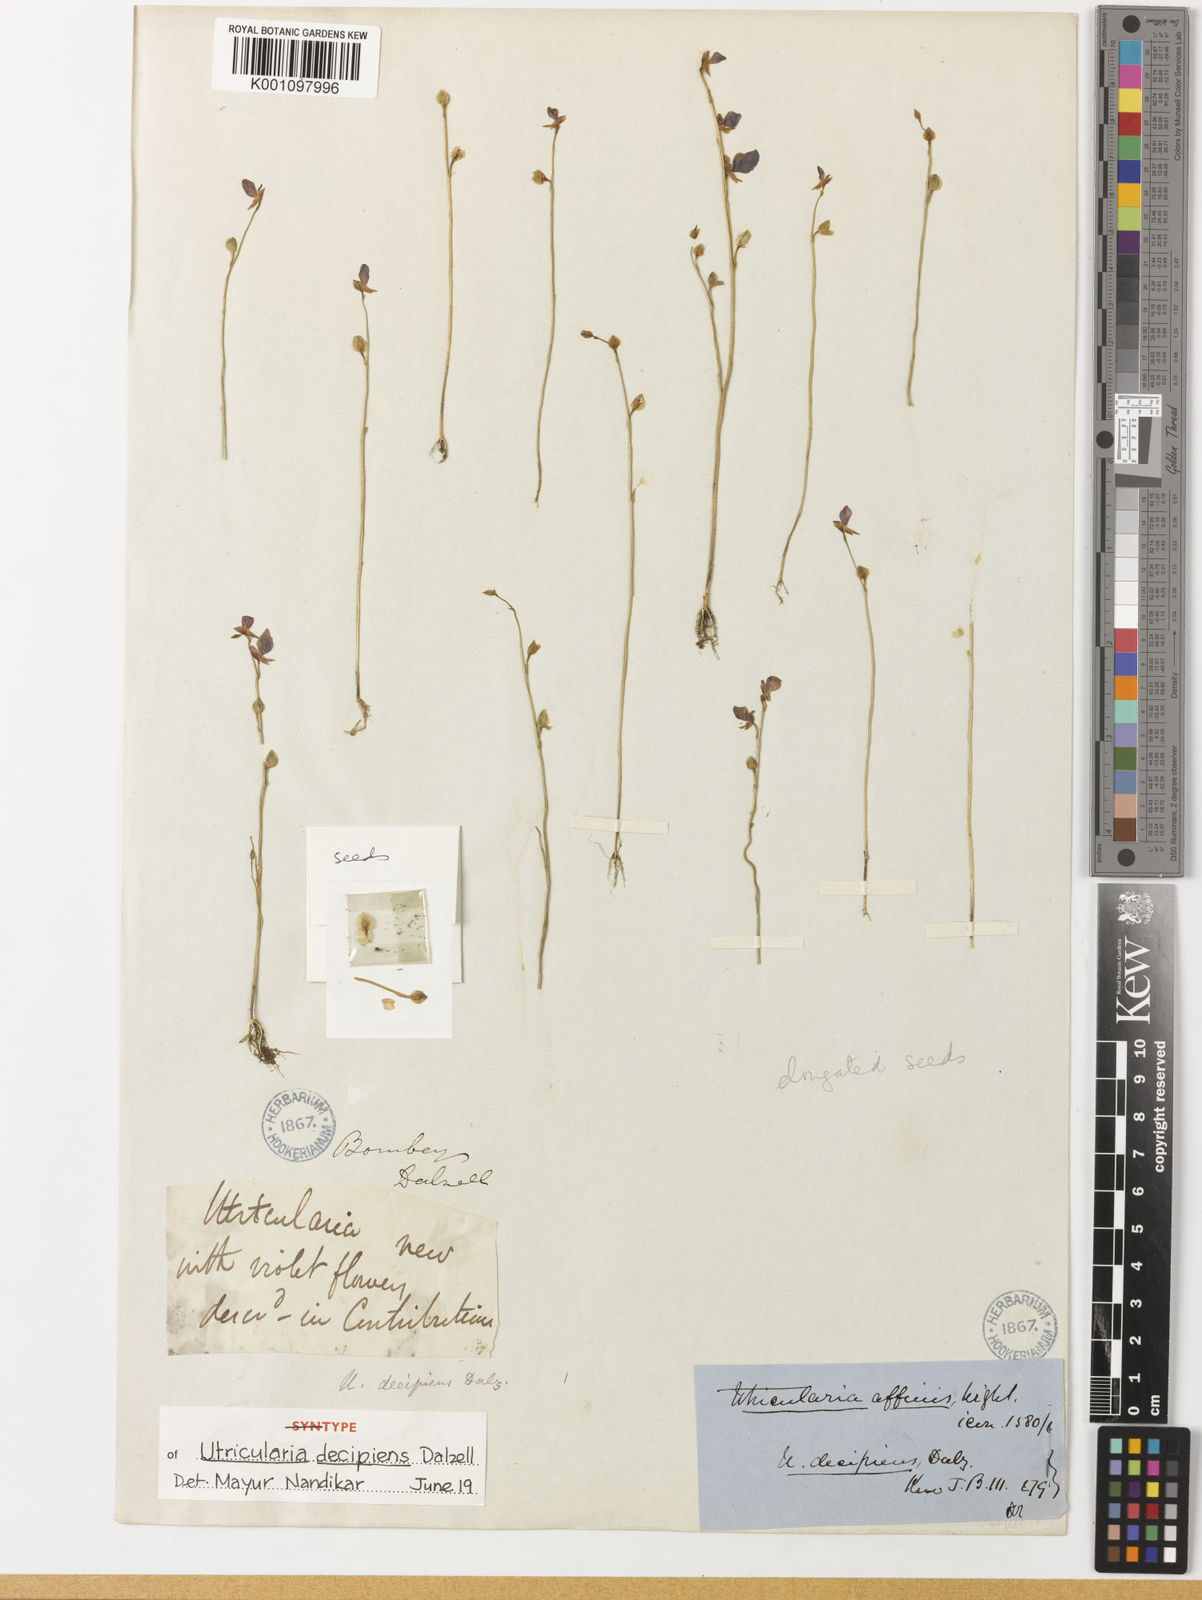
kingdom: Plantae
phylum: Tracheophyta
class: Magnoliopsida
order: Lamiales
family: Lentibulariaceae
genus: Utricularia
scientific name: Utricularia uliginosa
